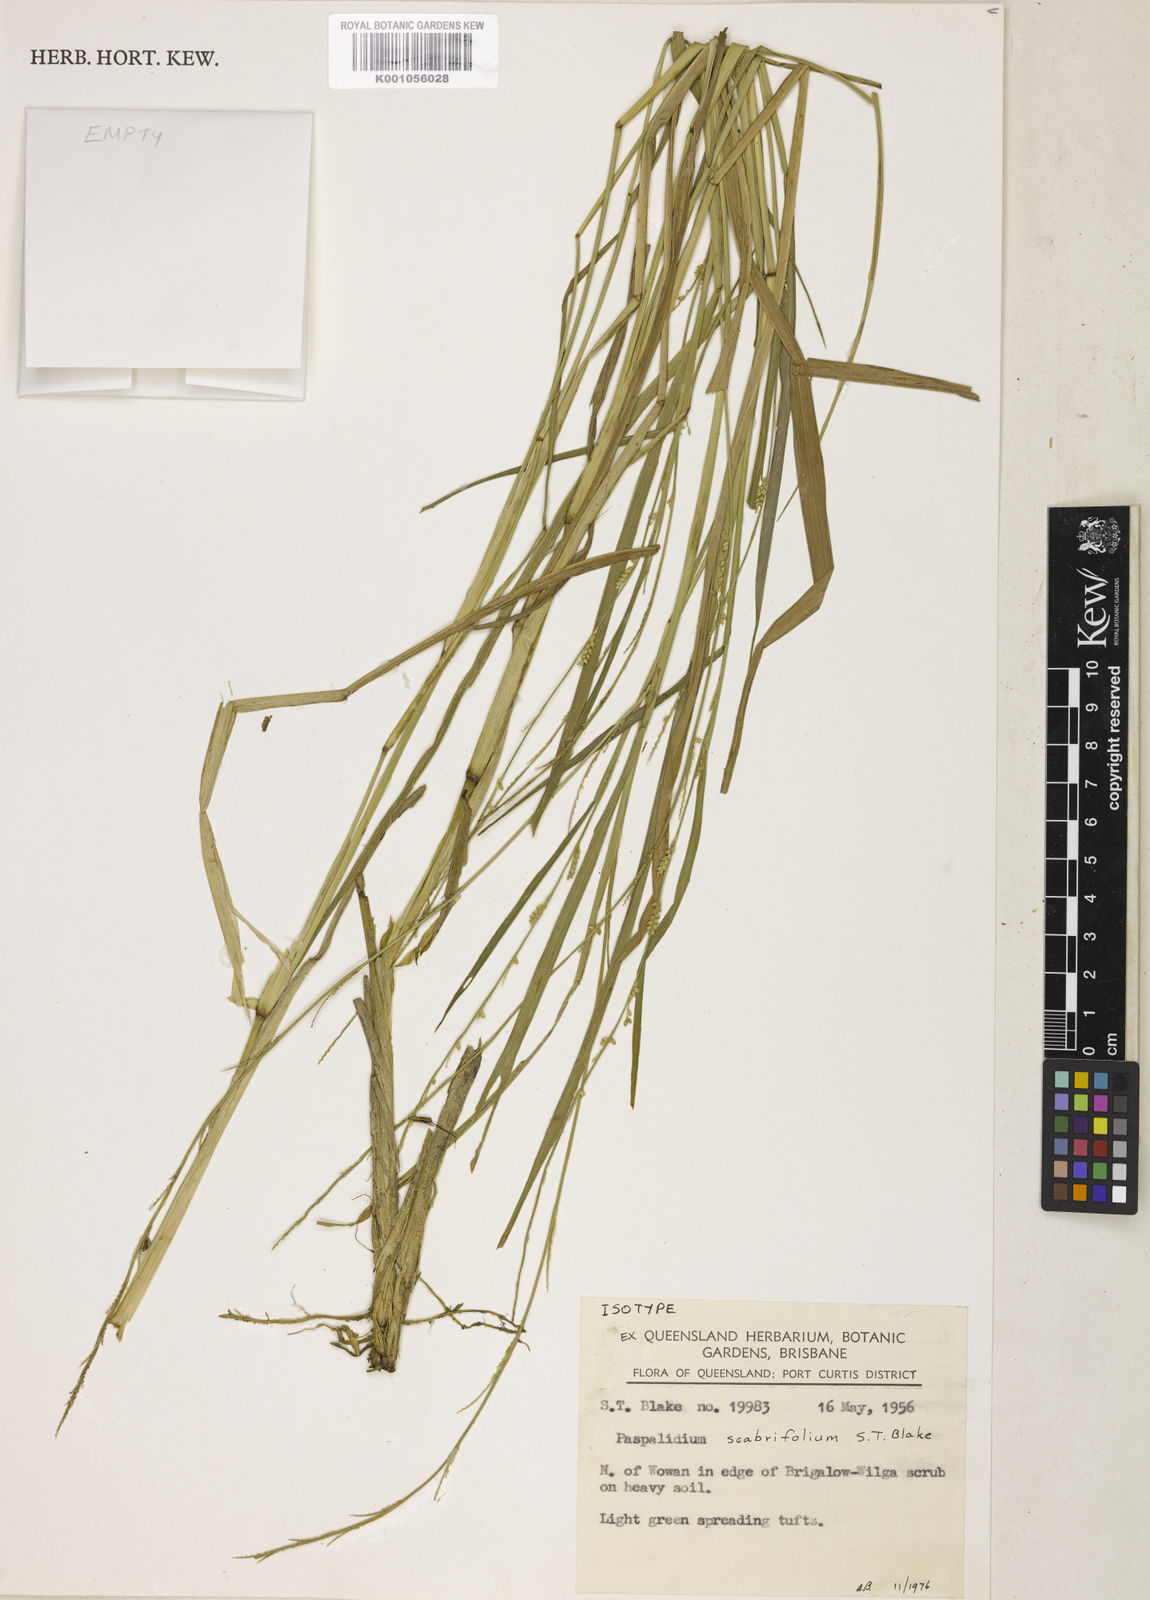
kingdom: Plantae
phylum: Tracheophyta
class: Liliopsida
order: Poales
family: Poaceae
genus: Setaria
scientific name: Setaria distans
